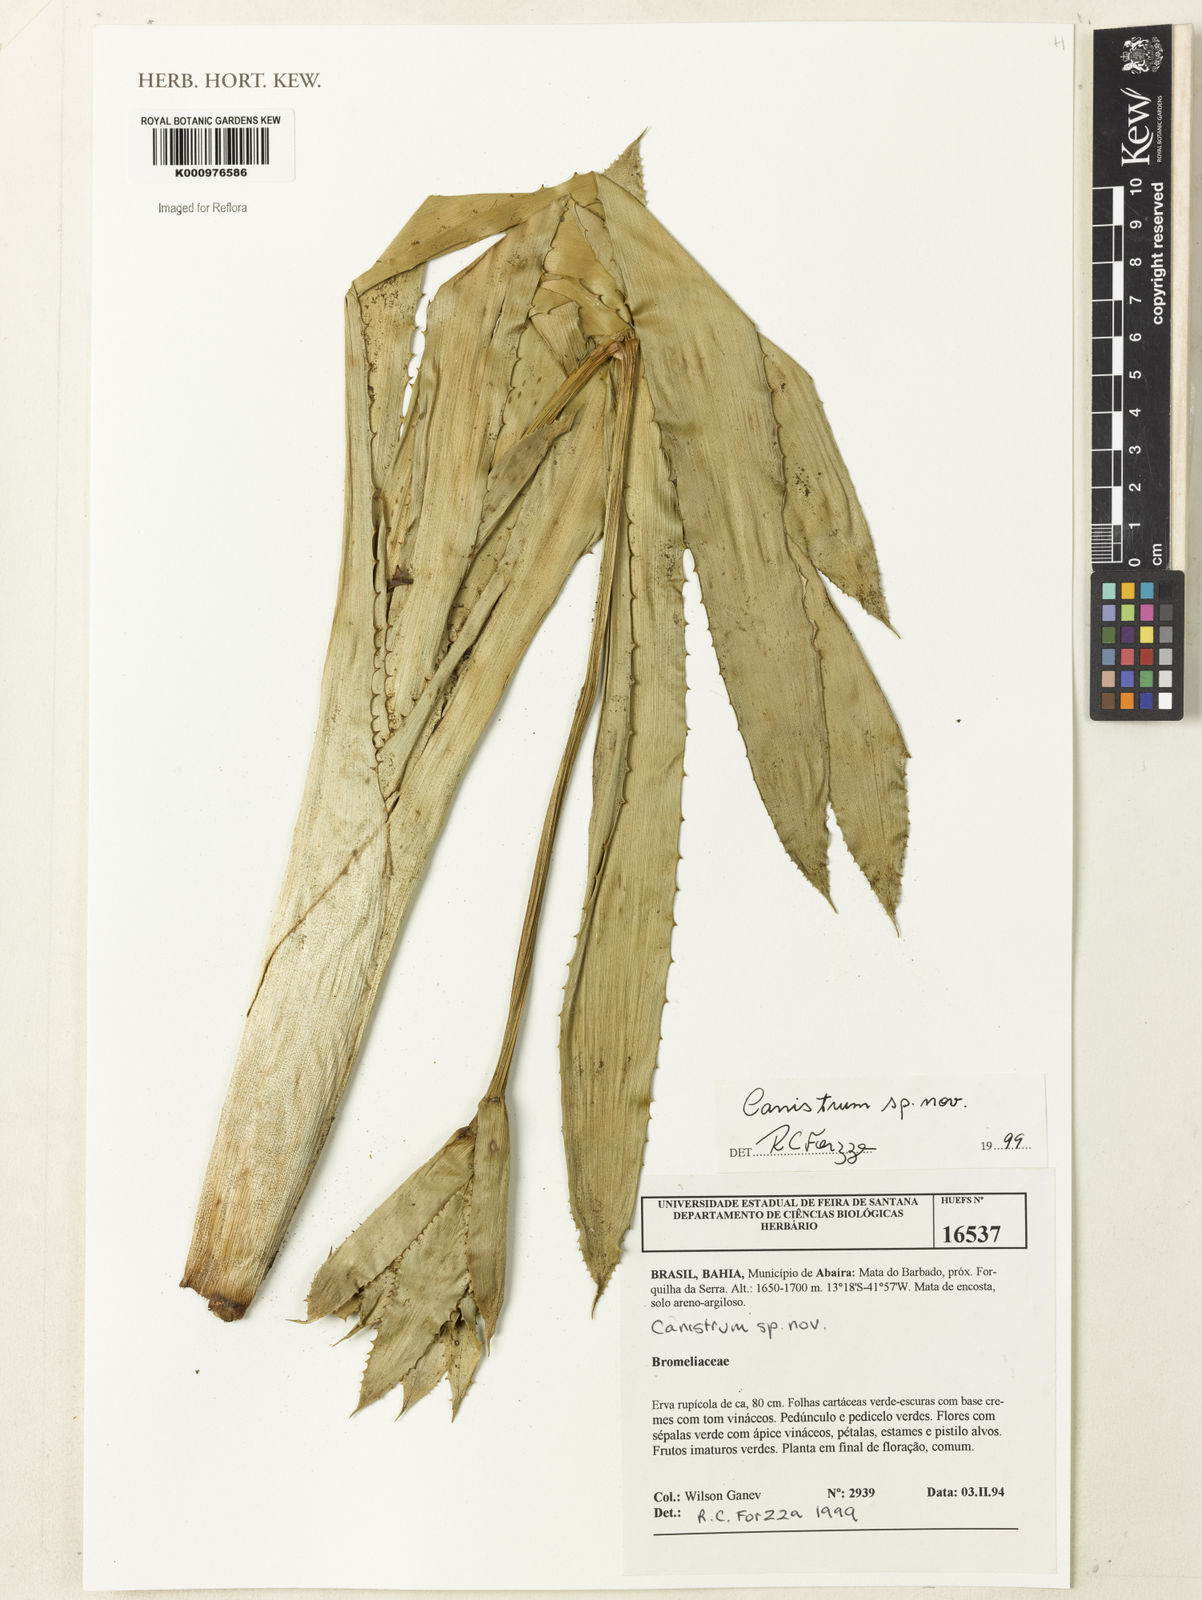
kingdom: Plantae
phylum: Tracheophyta
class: Liliopsida
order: Poales
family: Bromeliaceae
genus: Canistrum
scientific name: Canistrum
